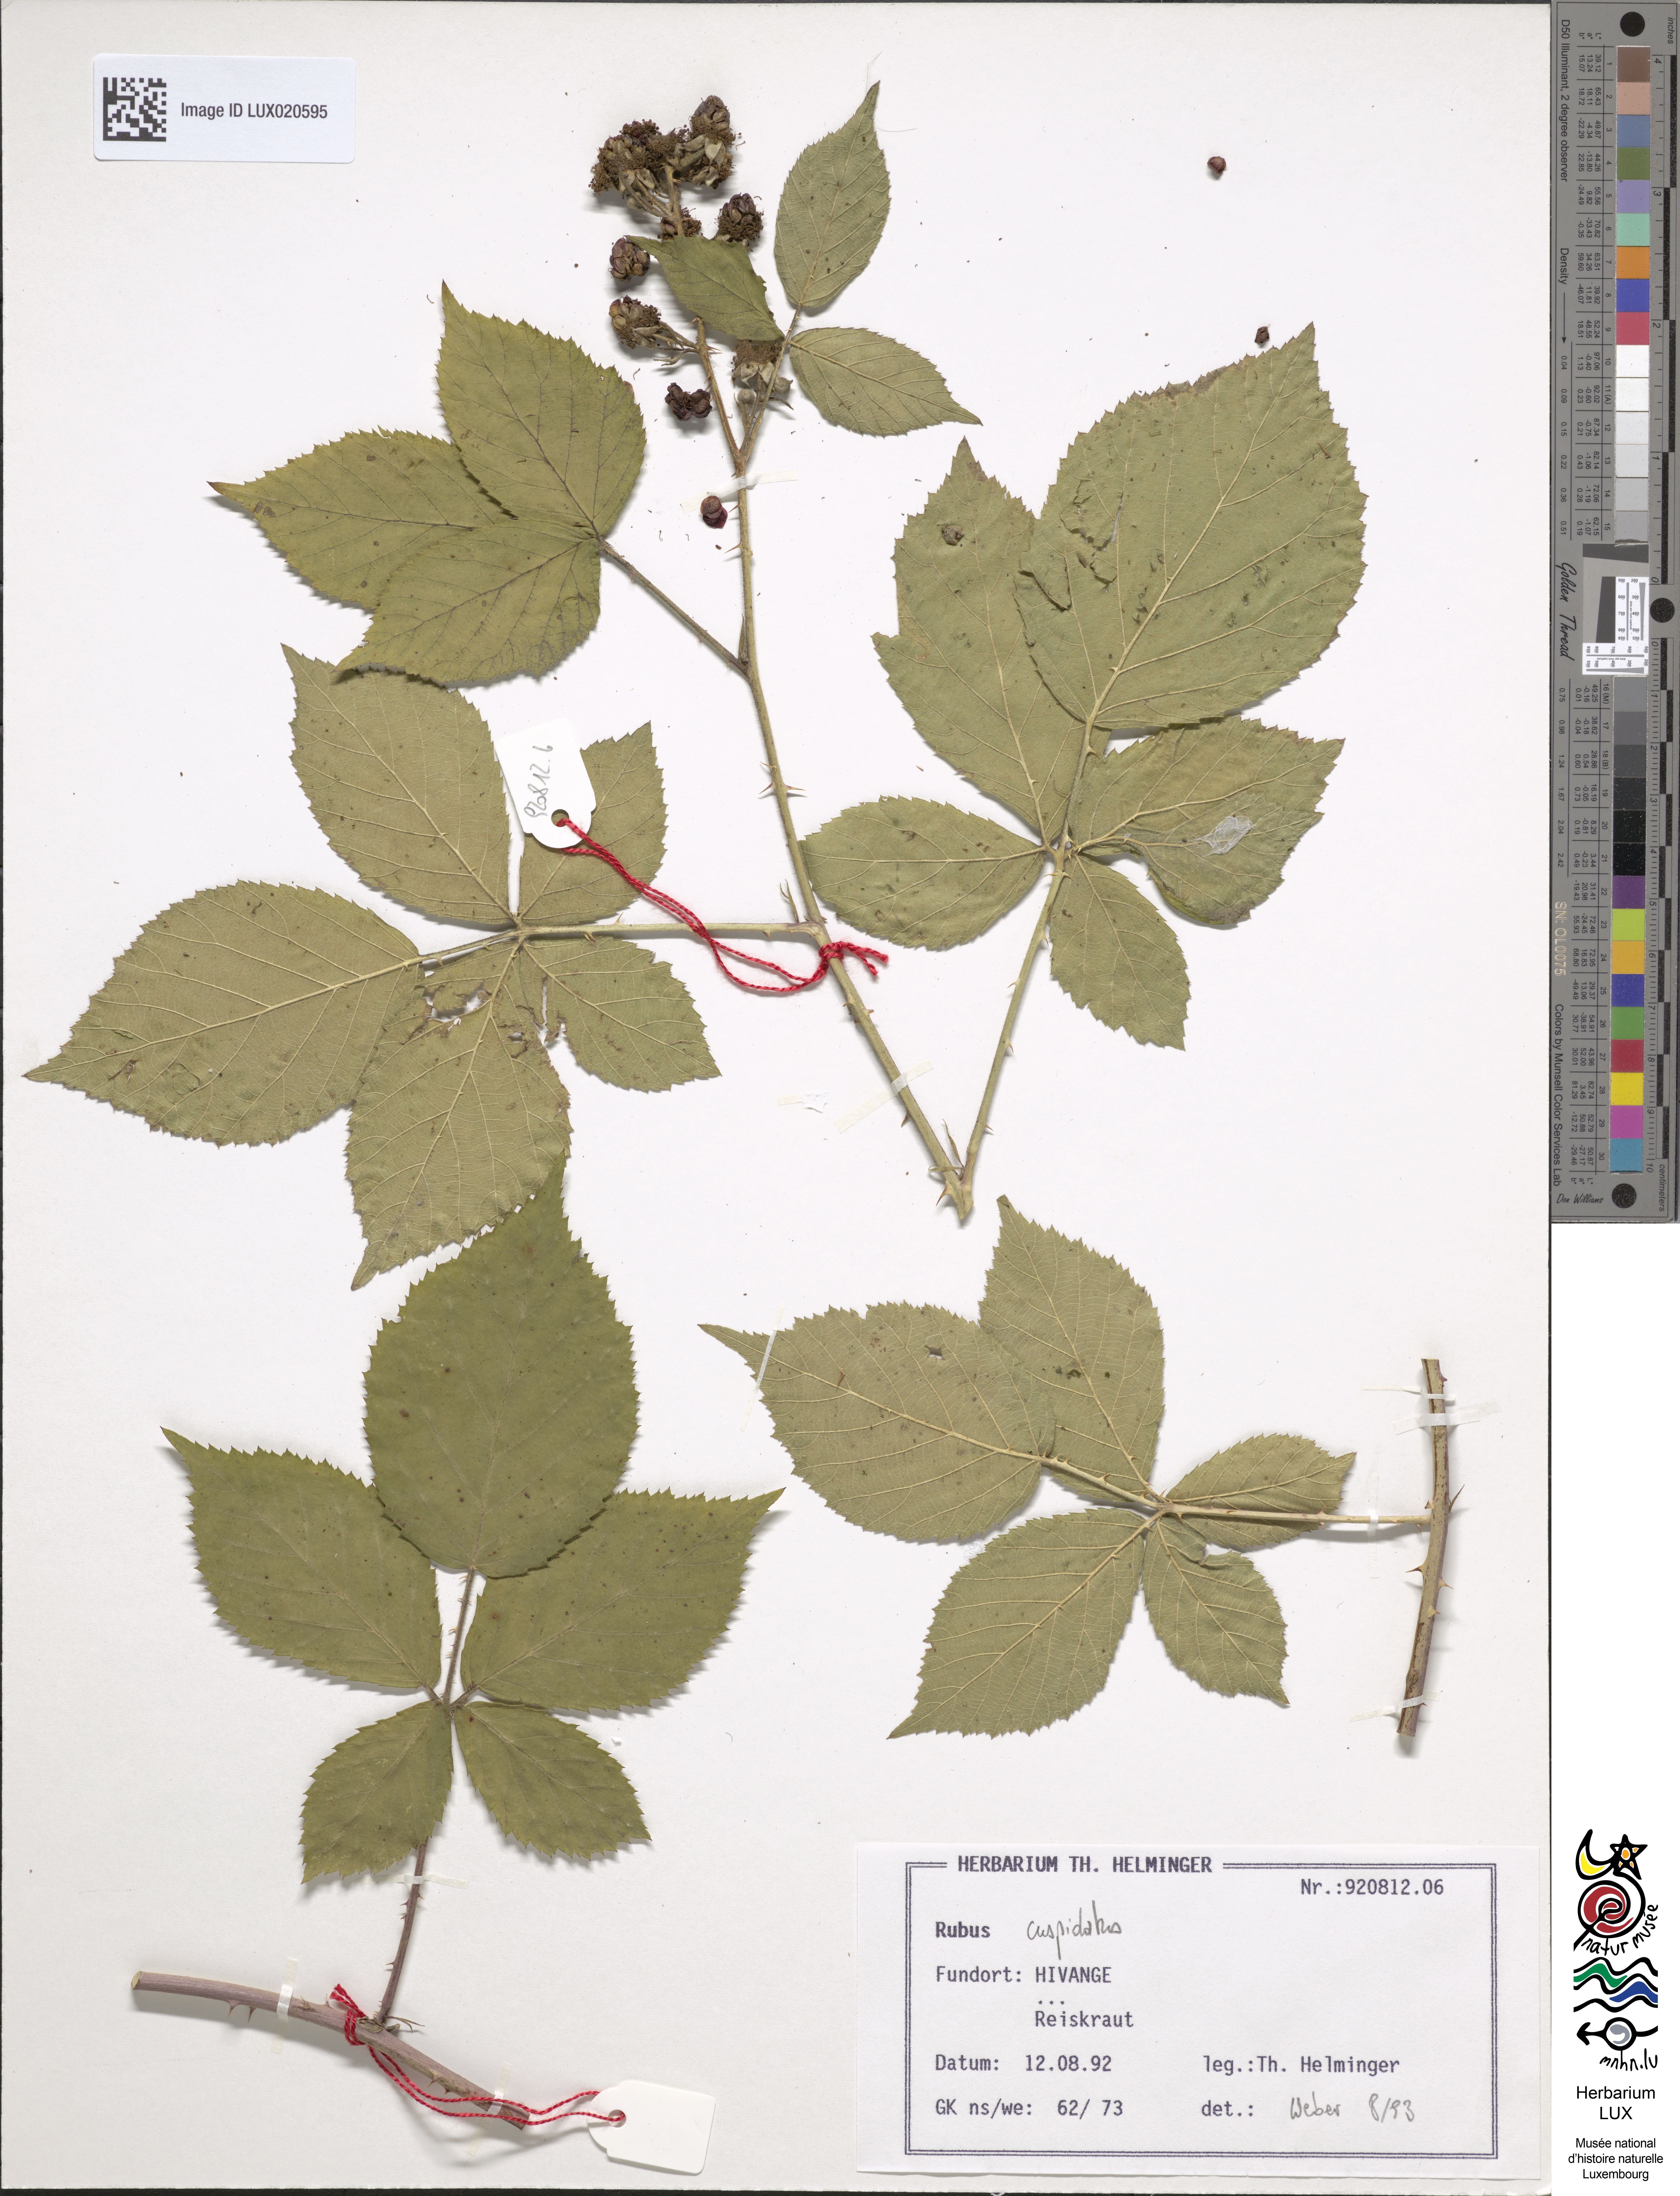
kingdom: Plantae
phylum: Tracheophyta
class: Magnoliopsida
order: Rosales
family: Rosaceae
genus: Rubus
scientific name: Rubus cuspidatus
